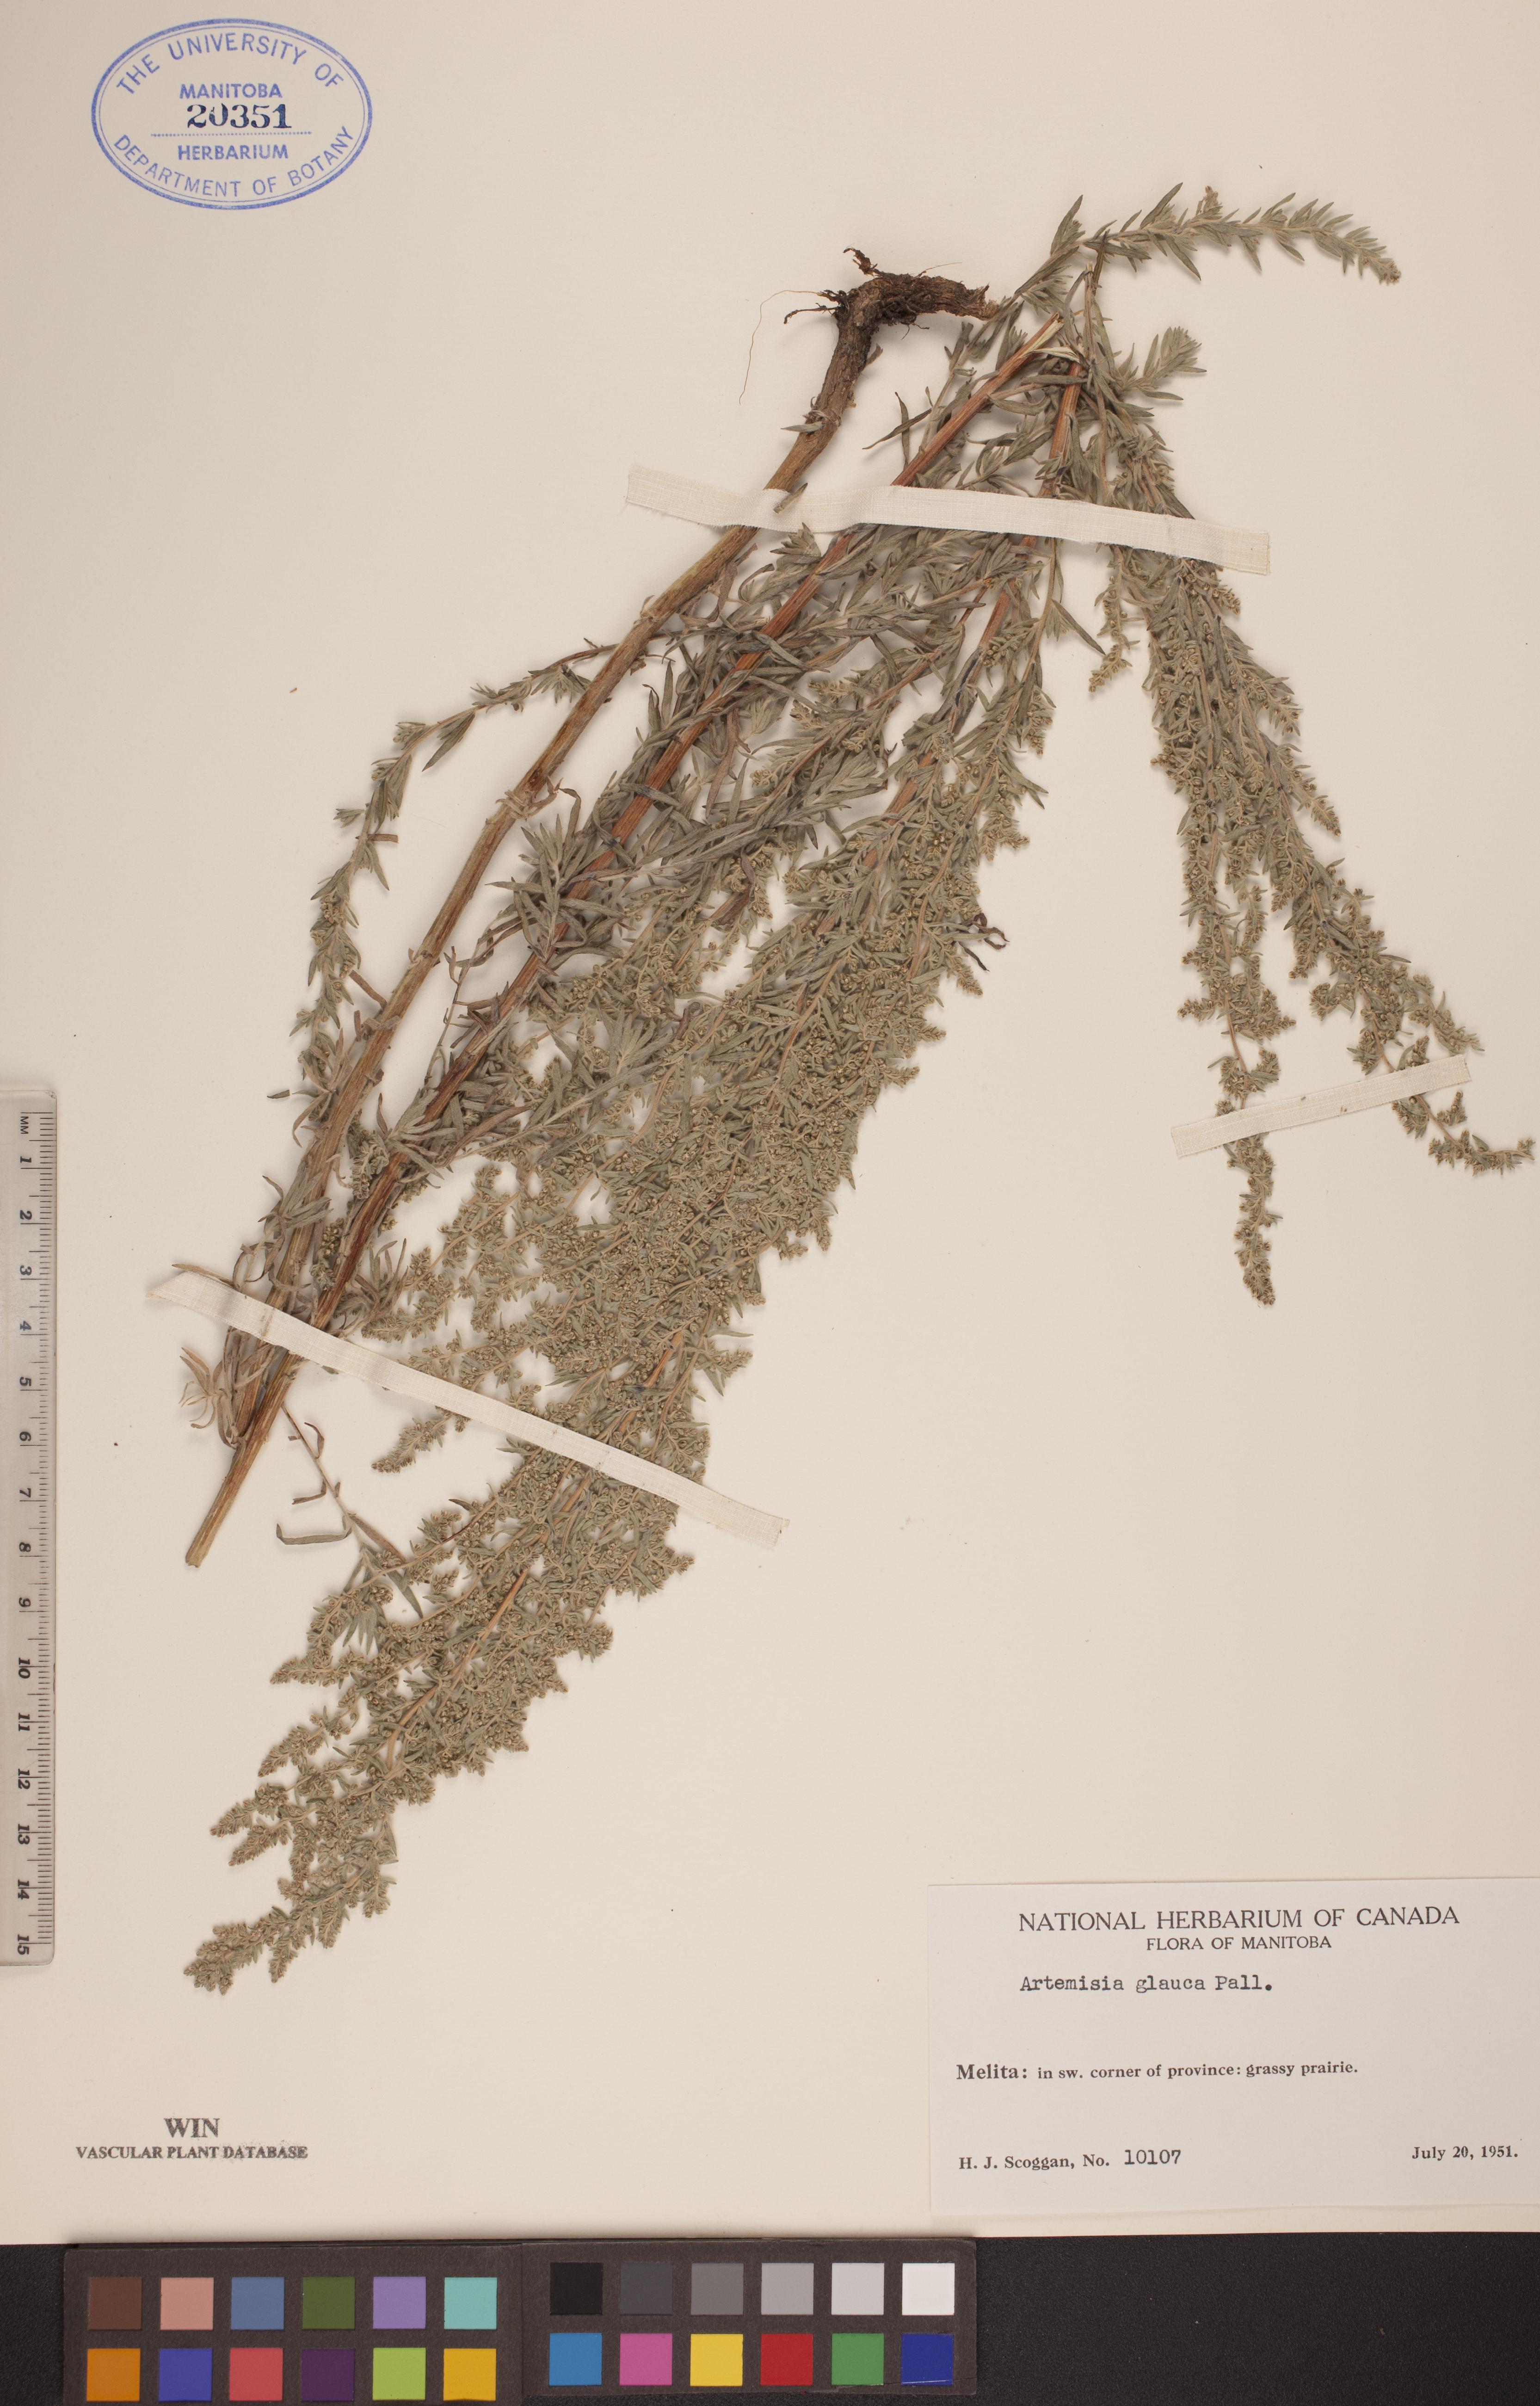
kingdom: Plantae
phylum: Tracheophyta
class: Magnoliopsida
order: Asterales
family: Asteraceae
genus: Artemisia
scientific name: Artemisia glauca
